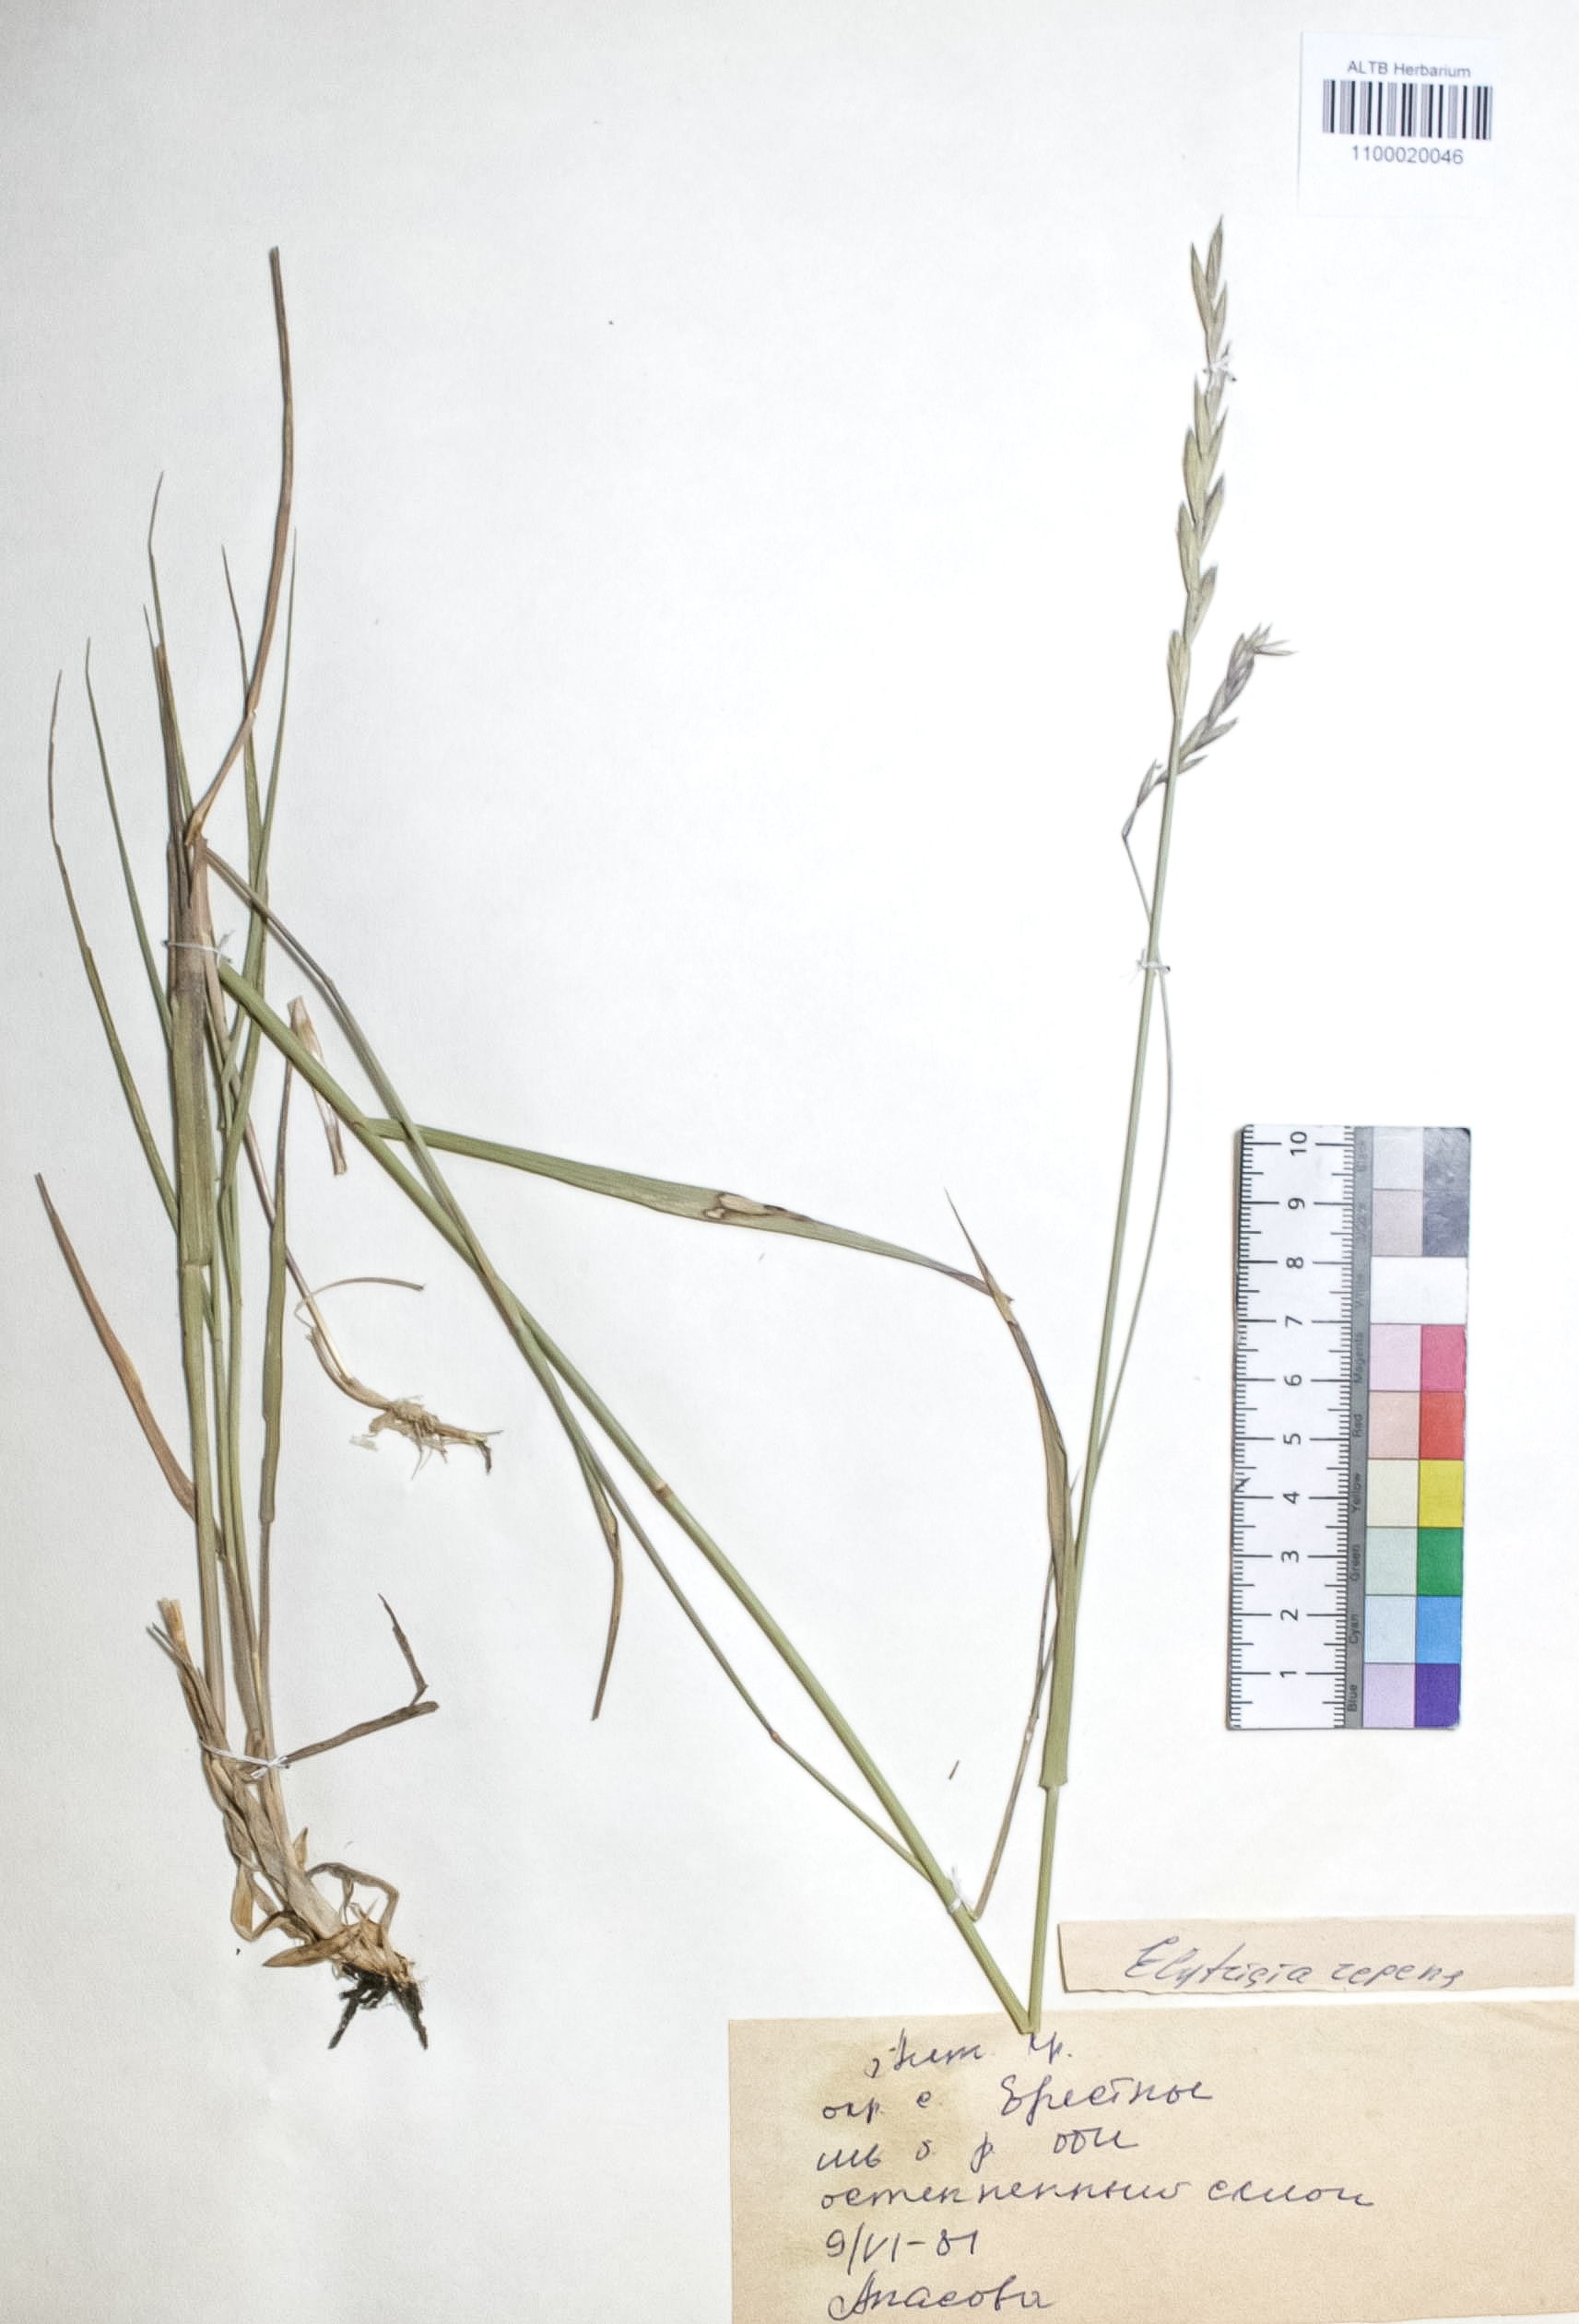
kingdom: Plantae
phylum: Tracheophyta
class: Liliopsida
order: Poales
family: Poaceae
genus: Elymus
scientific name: Elymus repens
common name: Quackgrass
